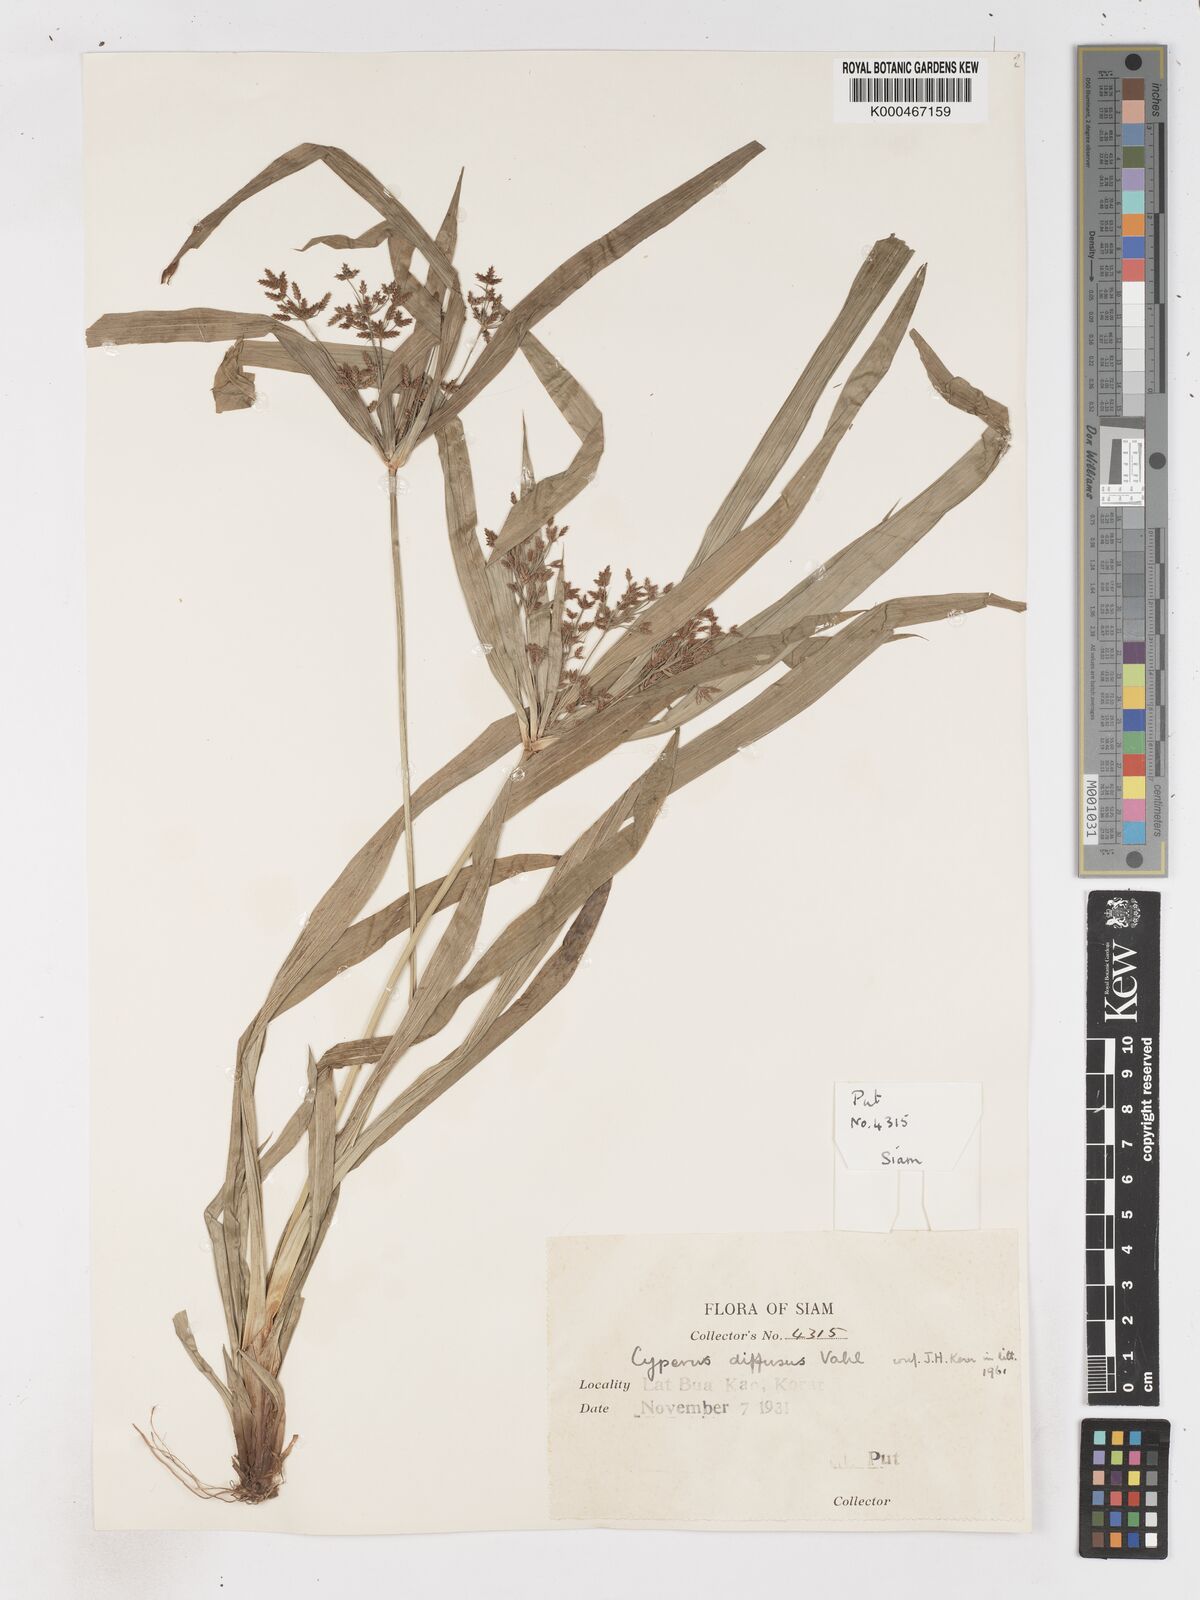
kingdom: Plantae
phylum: Tracheophyta
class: Liliopsida
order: Poales
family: Cyperaceae
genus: Cyperus
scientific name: Cyperus diffusus
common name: Dwarf umbrella grass
